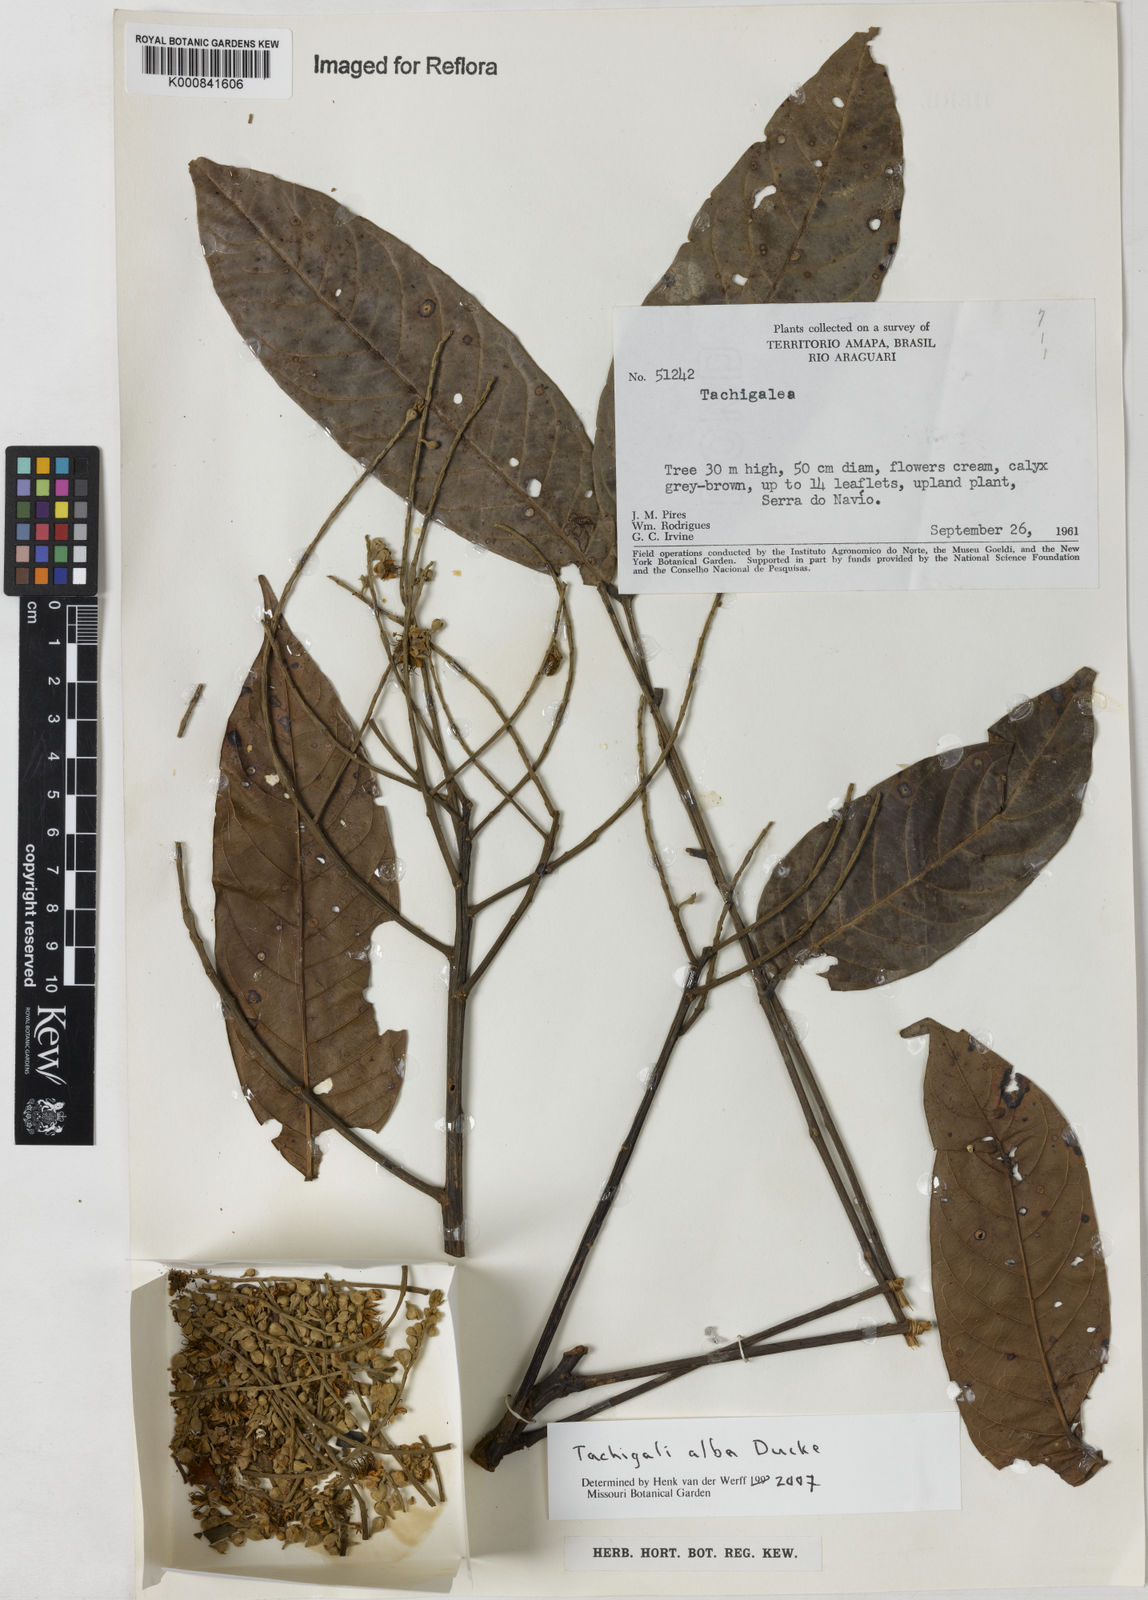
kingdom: Plantae
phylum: Tracheophyta
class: Magnoliopsida
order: Fabales
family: Fabaceae
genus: Tachigali
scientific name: Tachigali alba
